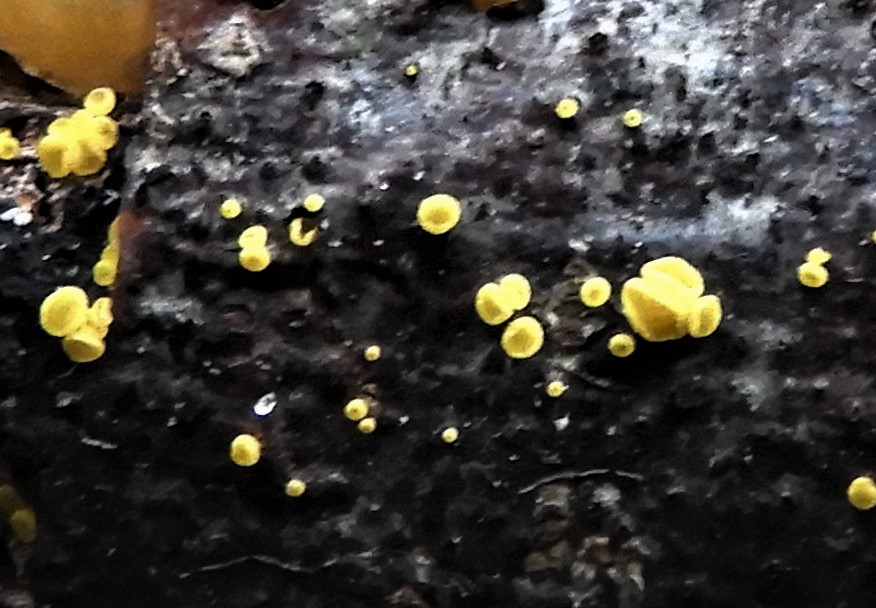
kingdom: Fungi
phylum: Ascomycota
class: Leotiomycetes
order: Helotiales
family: Pezizellaceae
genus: Calycina
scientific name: Calycina claroflava
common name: snyltende gulskive
